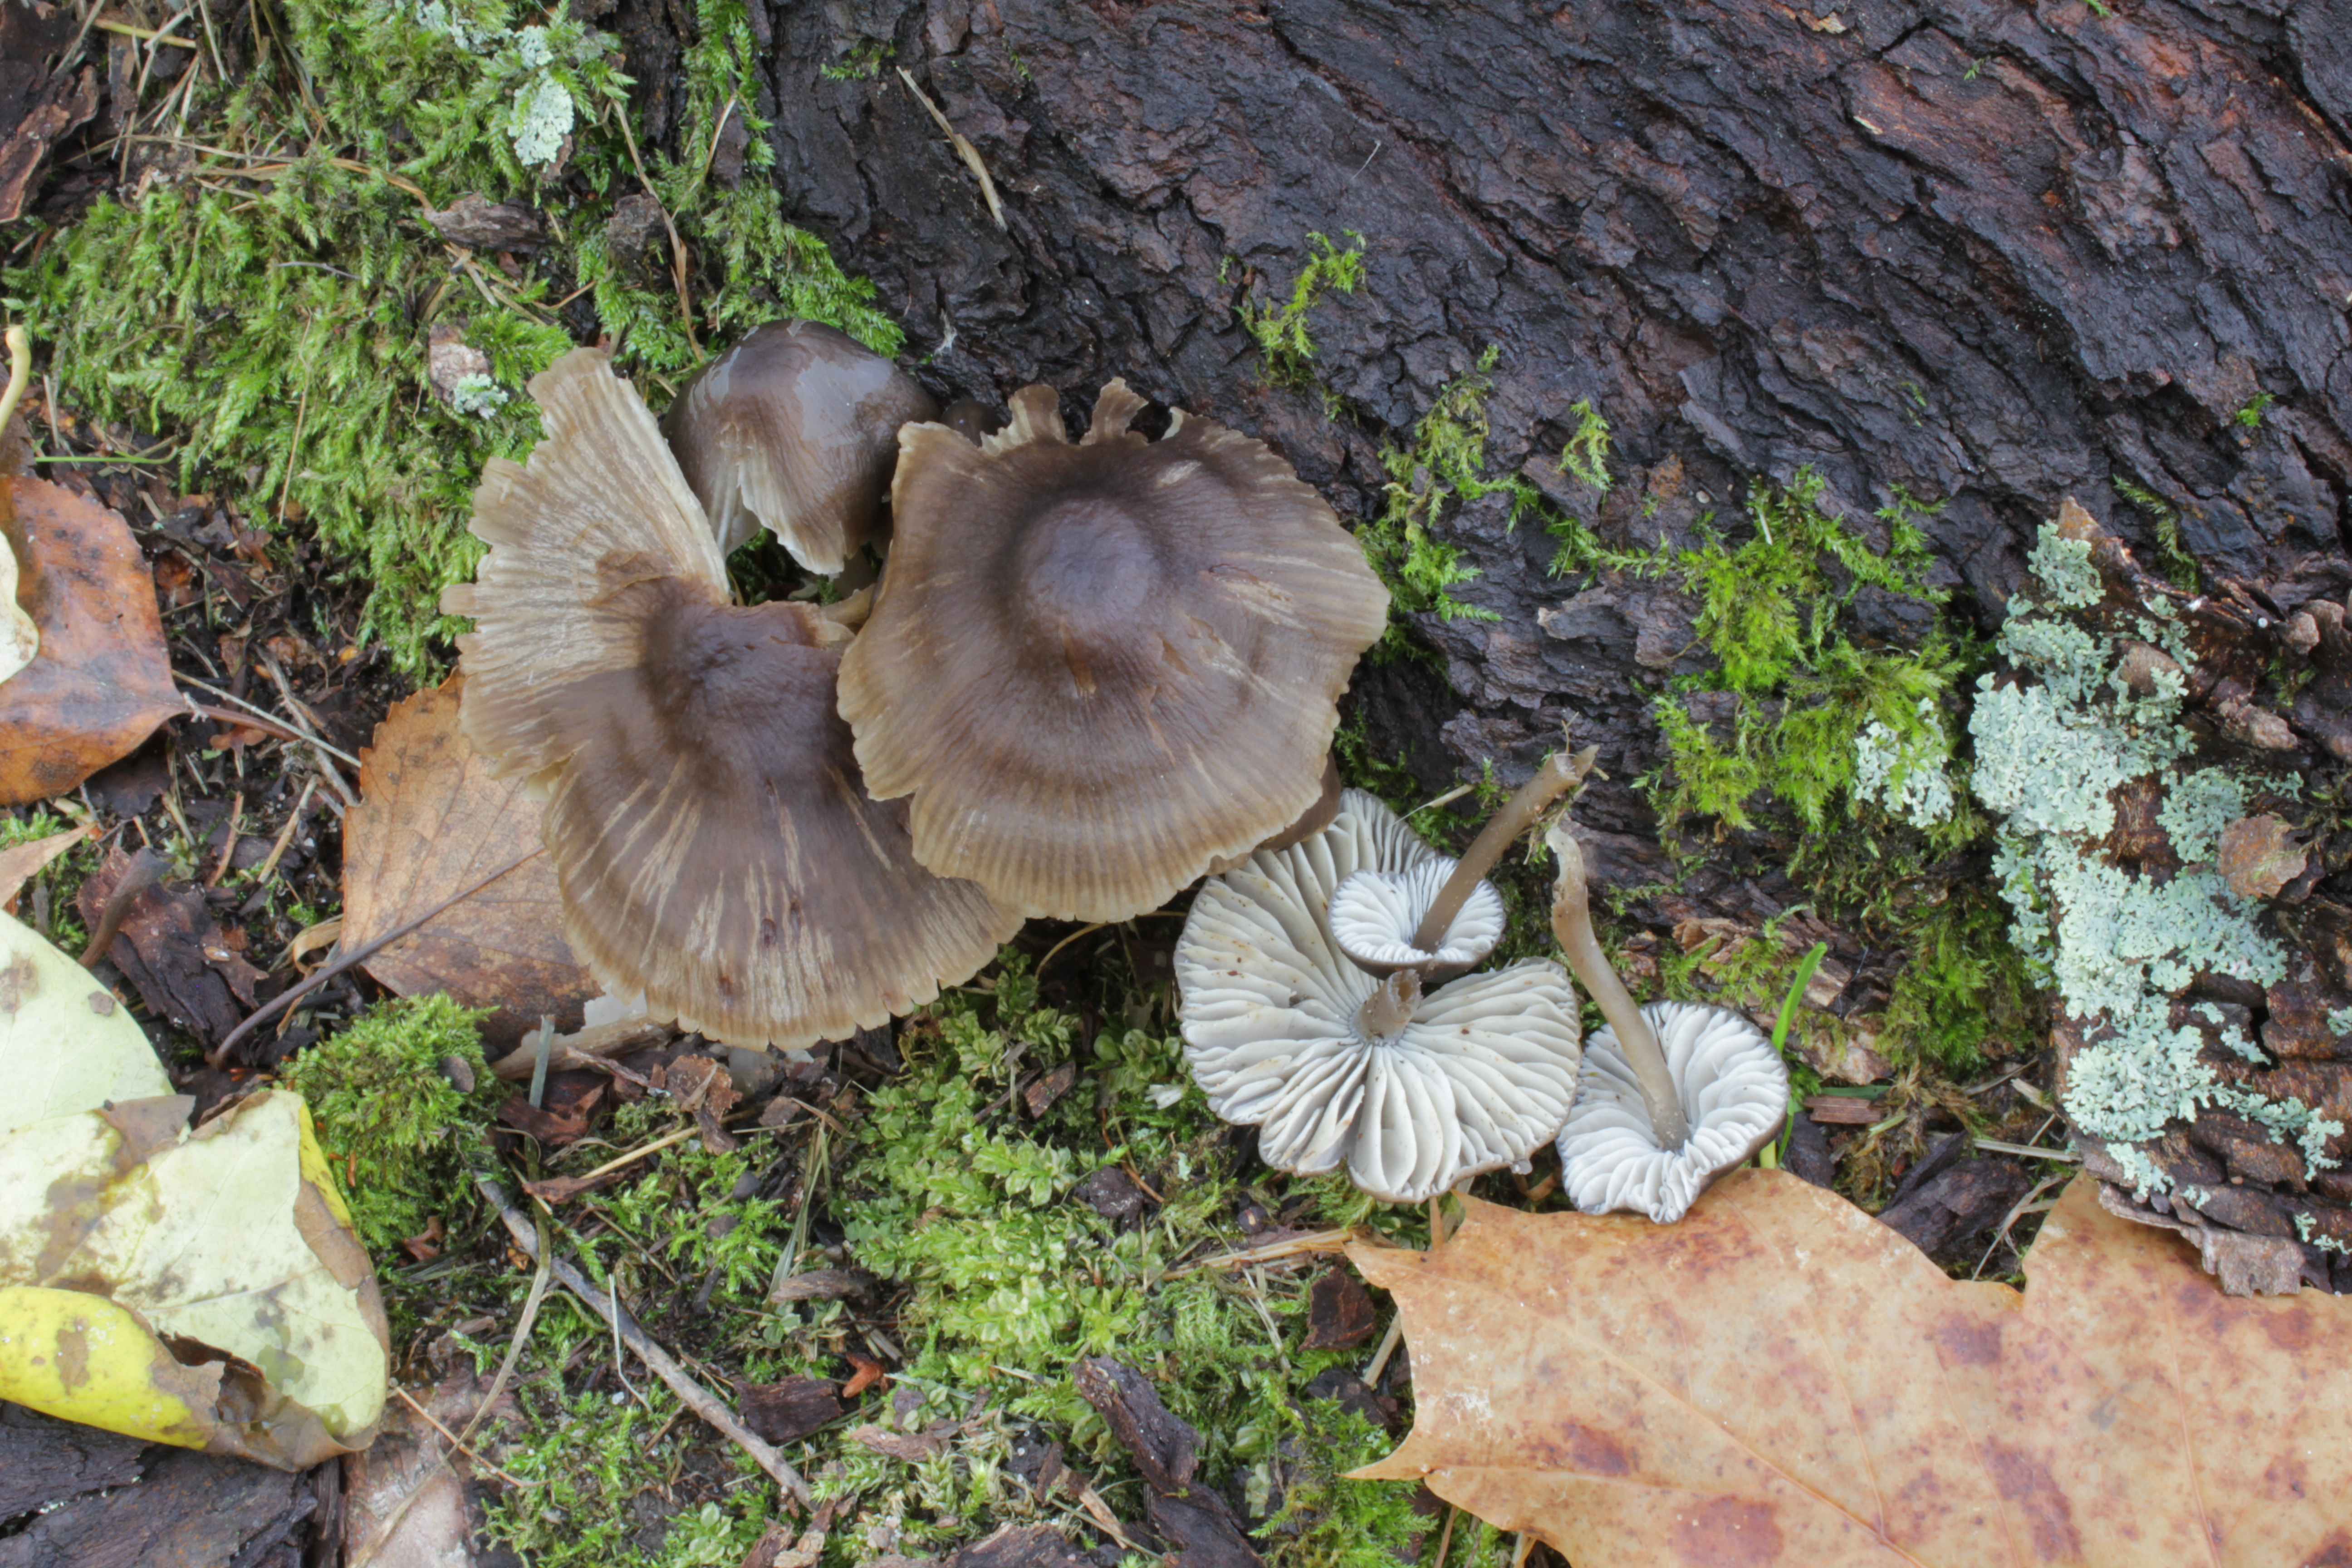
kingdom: Fungi
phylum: Basidiomycota
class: Agaricomycetes
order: Agaricales
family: Mycenaceae
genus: Mycopan
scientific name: Mycopan scabripes
